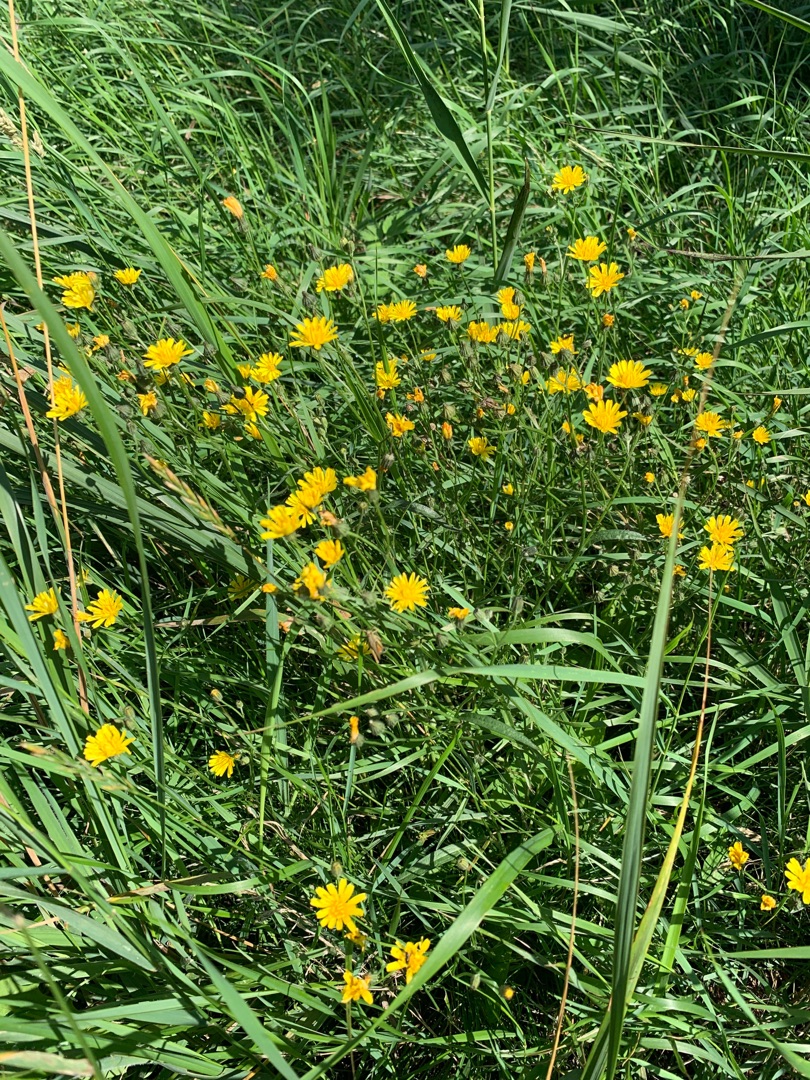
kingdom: Plantae
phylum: Tracheophyta
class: Magnoliopsida
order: Asterales
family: Asteraceae
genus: Crepis
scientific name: Crepis capillaris
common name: Grøn høgeskæg
